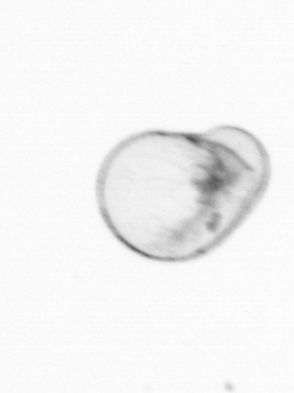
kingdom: Chromista
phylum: Myzozoa
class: Dinophyceae
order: Noctilucales
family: Noctilucaceae
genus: Noctiluca
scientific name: Noctiluca scintillans
